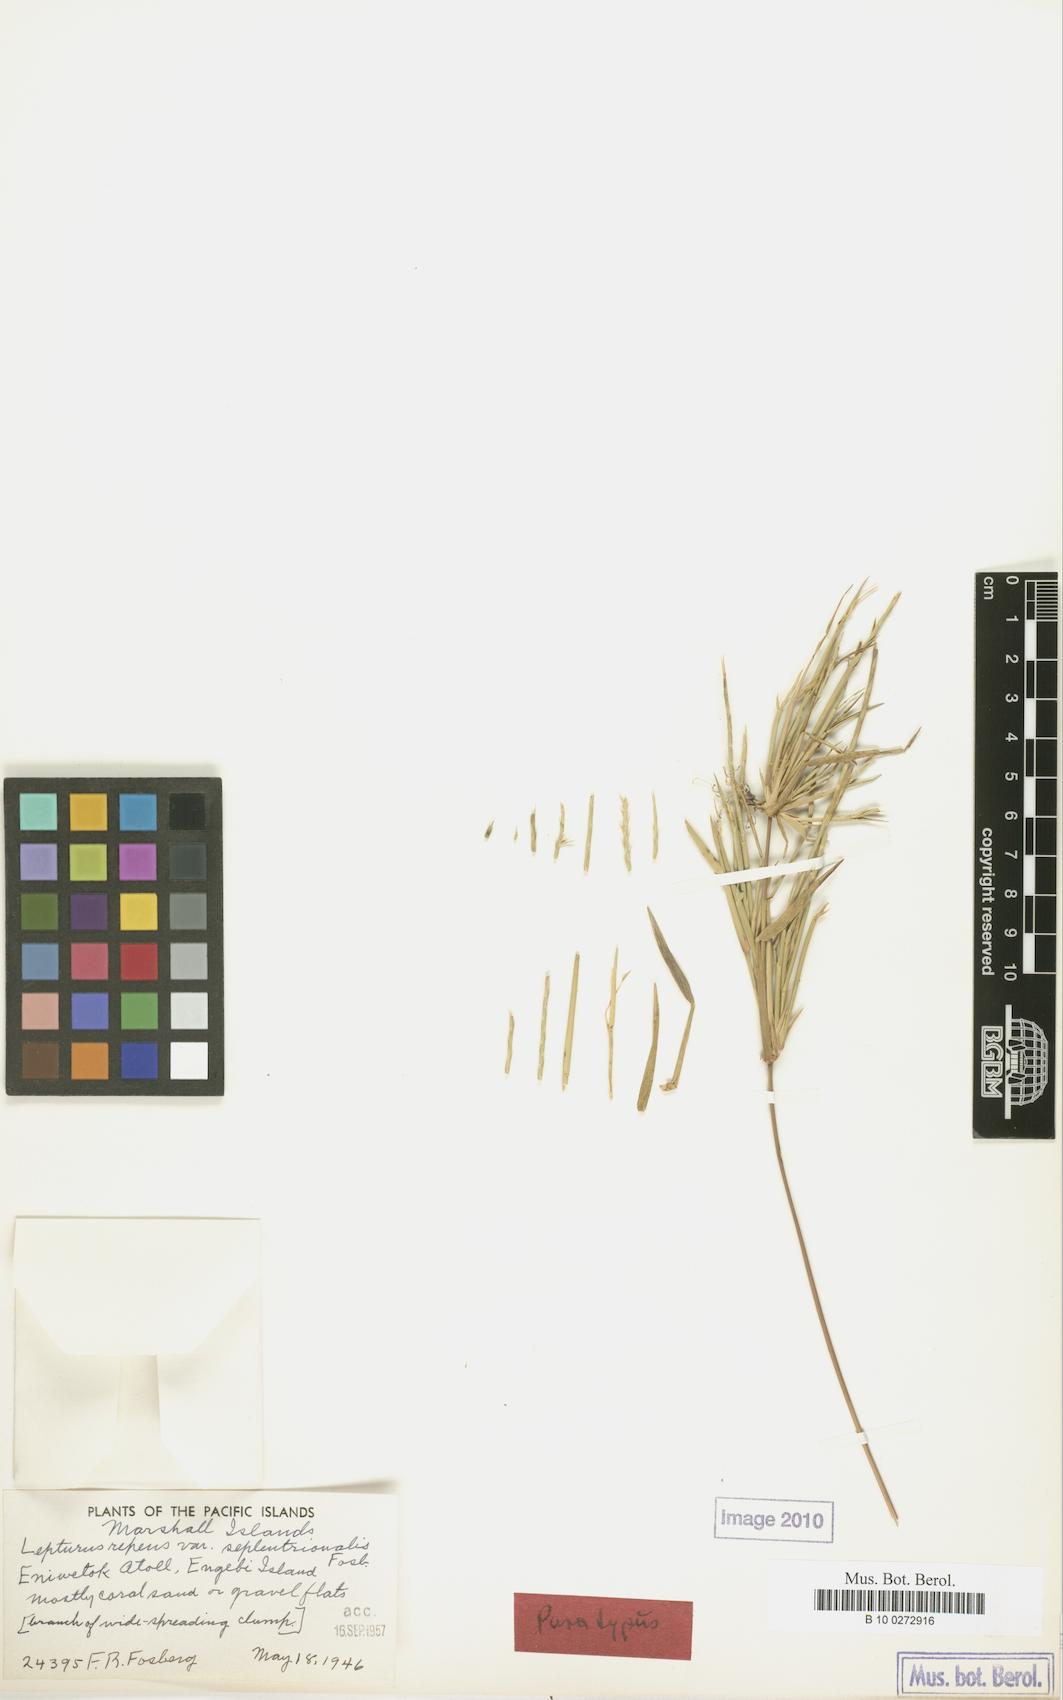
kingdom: Plantae
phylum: Tracheophyta
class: Liliopsida
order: Poales
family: Poaceae
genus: Lepturus
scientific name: Lepturus repens
